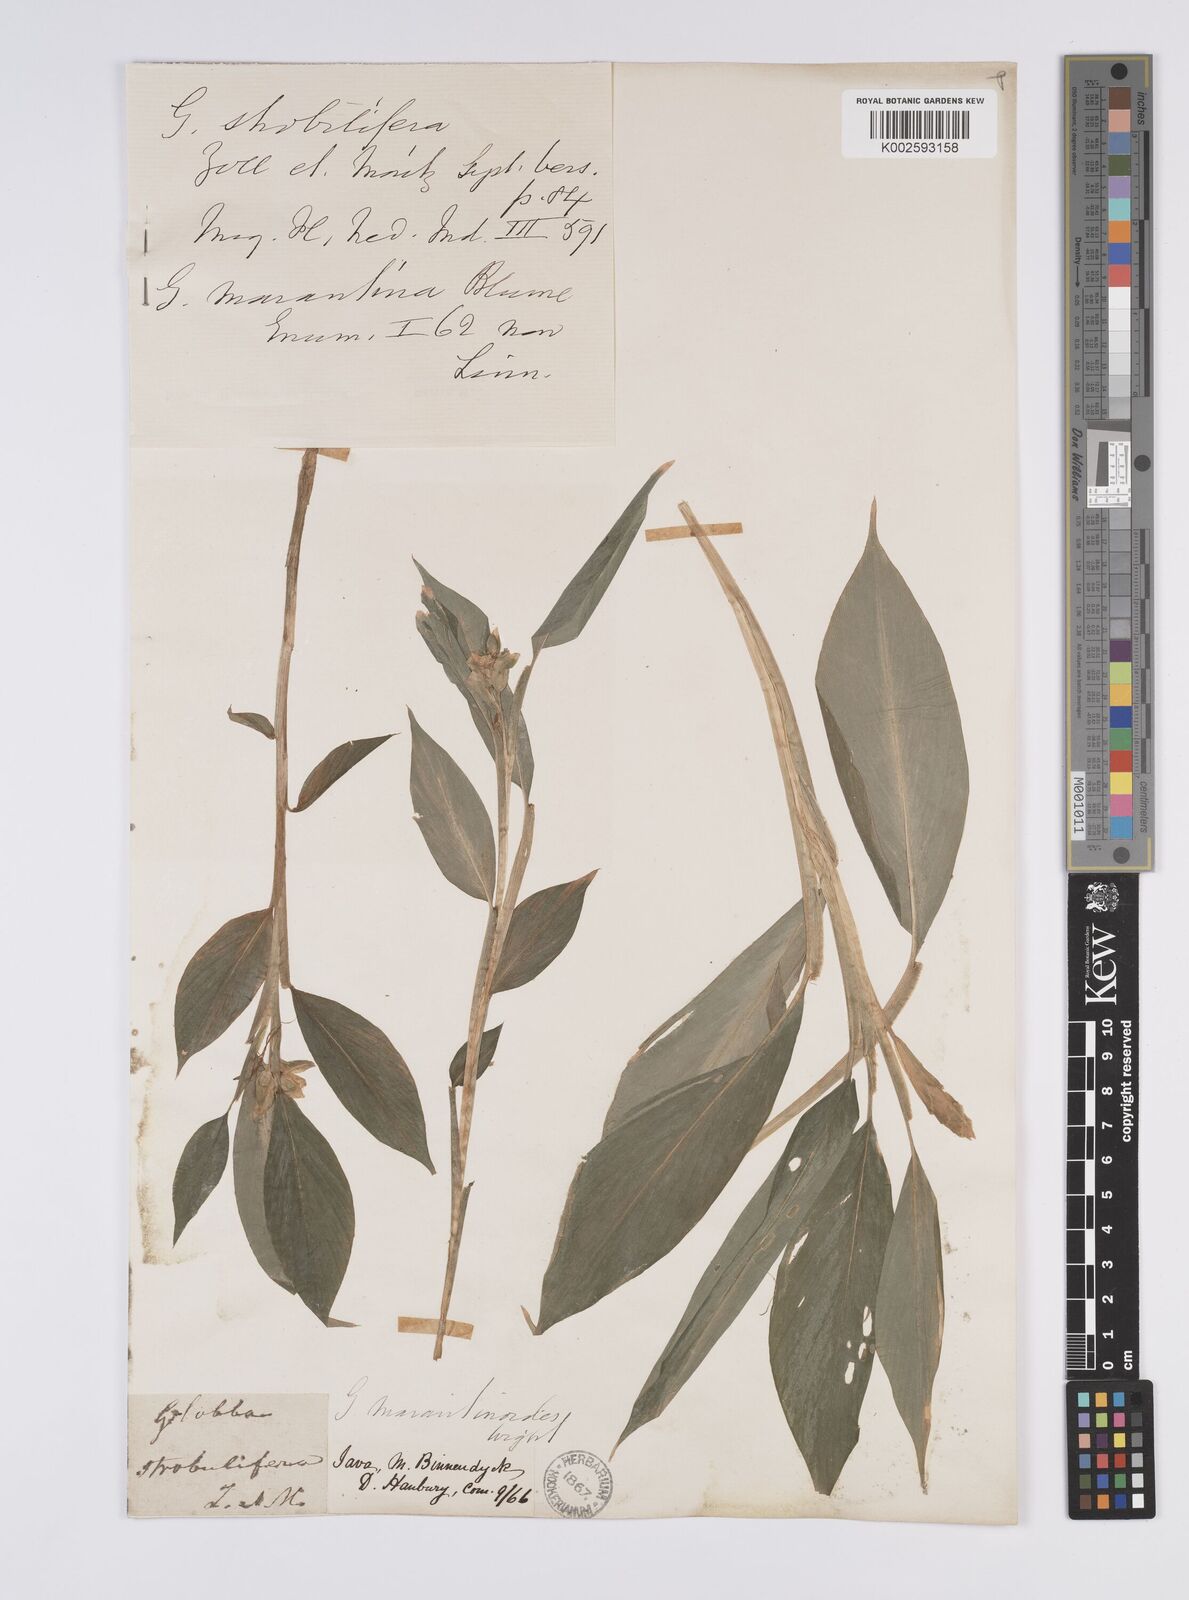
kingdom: Plantae
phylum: Tracheophyta
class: Liliopsida
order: Zingiberales
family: Zingiberaceae
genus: Globba
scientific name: Globba marantina
